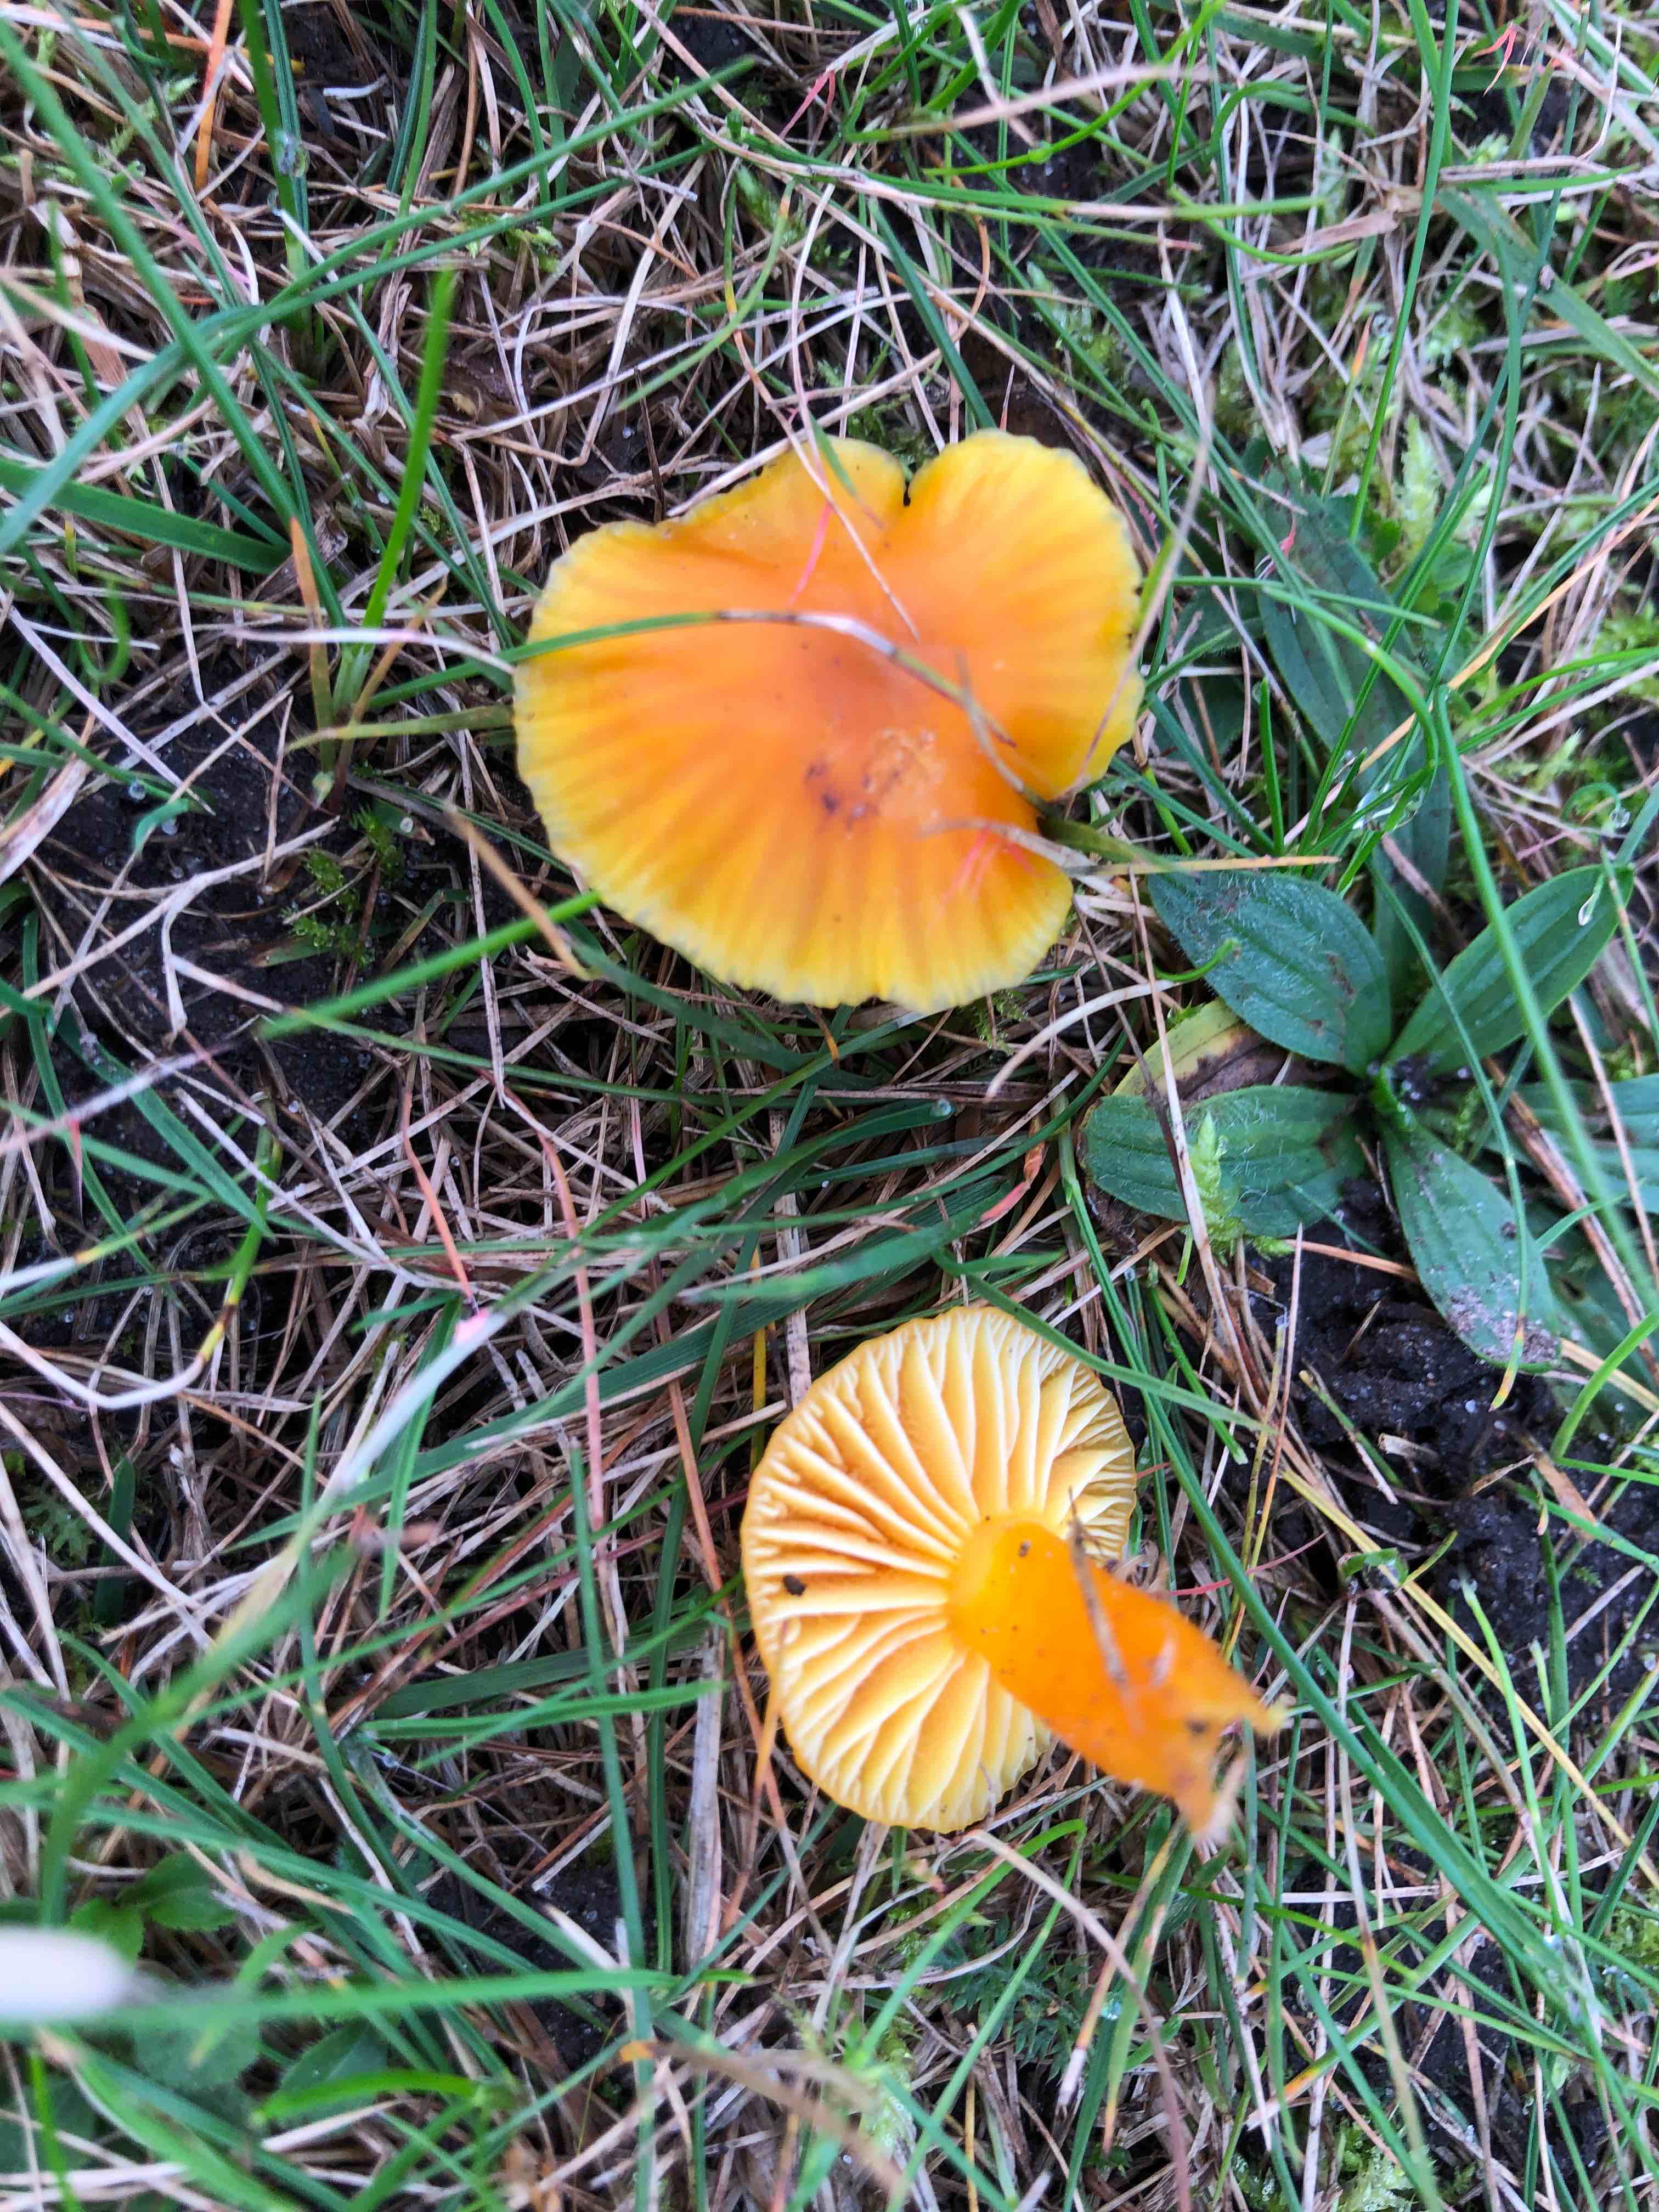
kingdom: Fungi
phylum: Basidiomycota
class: Agaricomycetes
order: Agaricales
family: Hygrophoraceae
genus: Hygrocybe
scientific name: Hygrocybe ceracea
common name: voksgul vokshat
